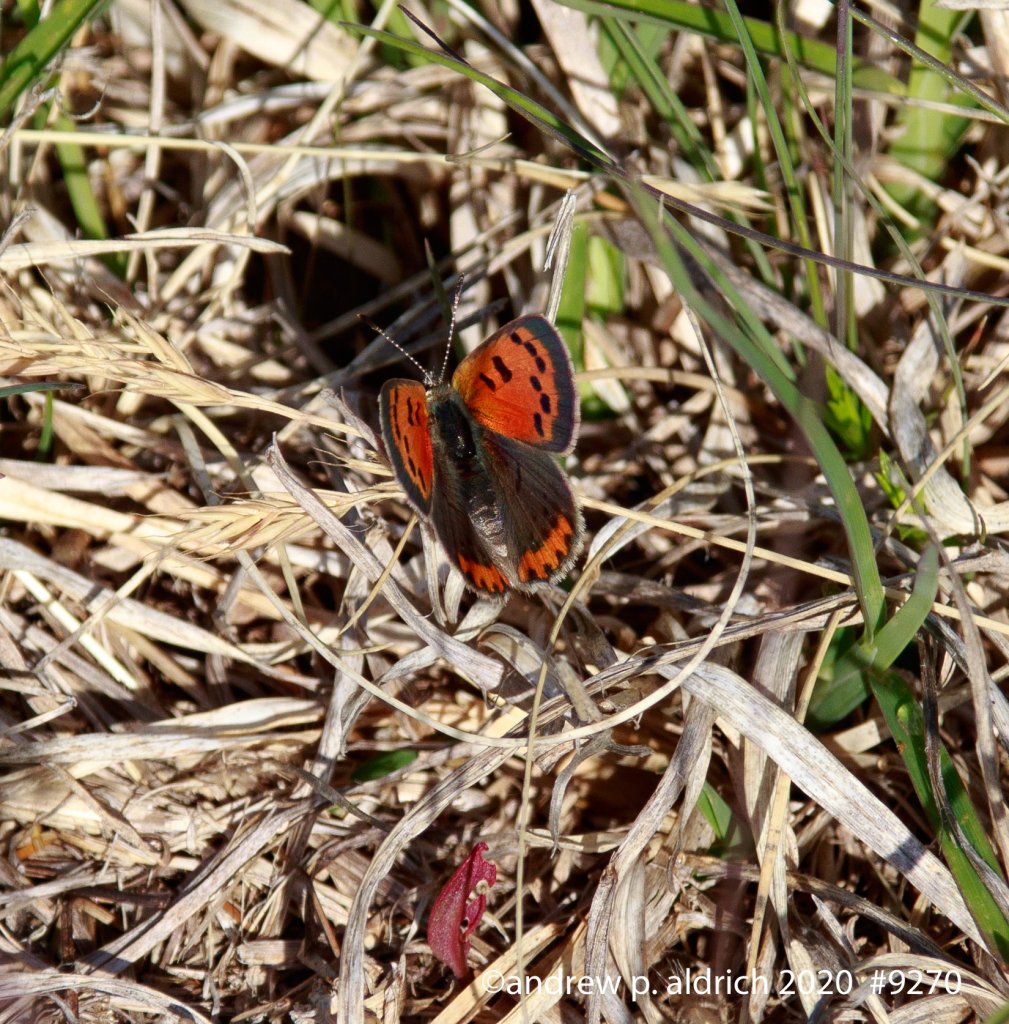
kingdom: Animalia
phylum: Arthropoda
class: Insecta
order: Lepidoptera
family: Lycaenidae
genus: Lycaena
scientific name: Lycaena phlaeas
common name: American Copper
